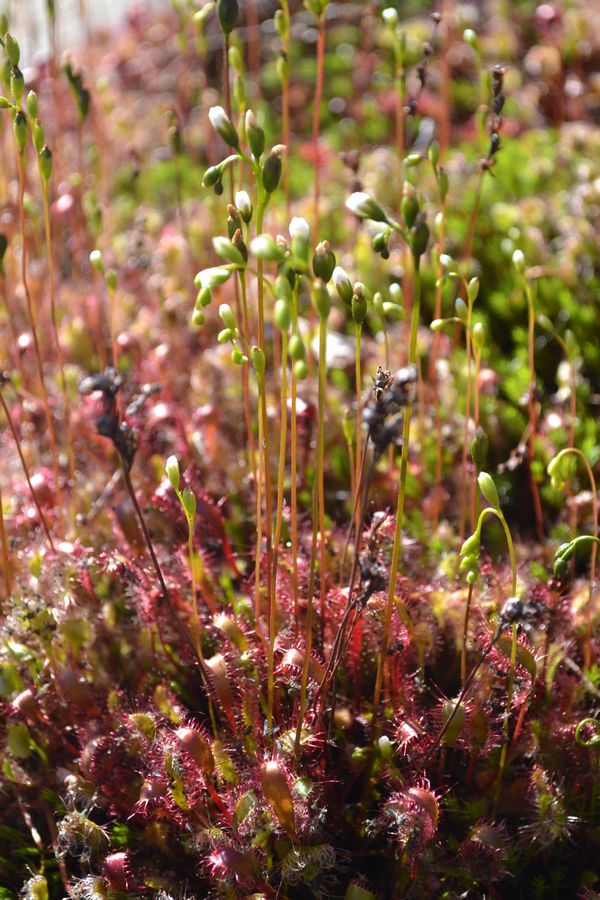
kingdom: Plantae
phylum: Tracheophyta
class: Magnoliopsida
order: Caryophyllales
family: Droseraceae
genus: Drosera
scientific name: Drosera anglica
